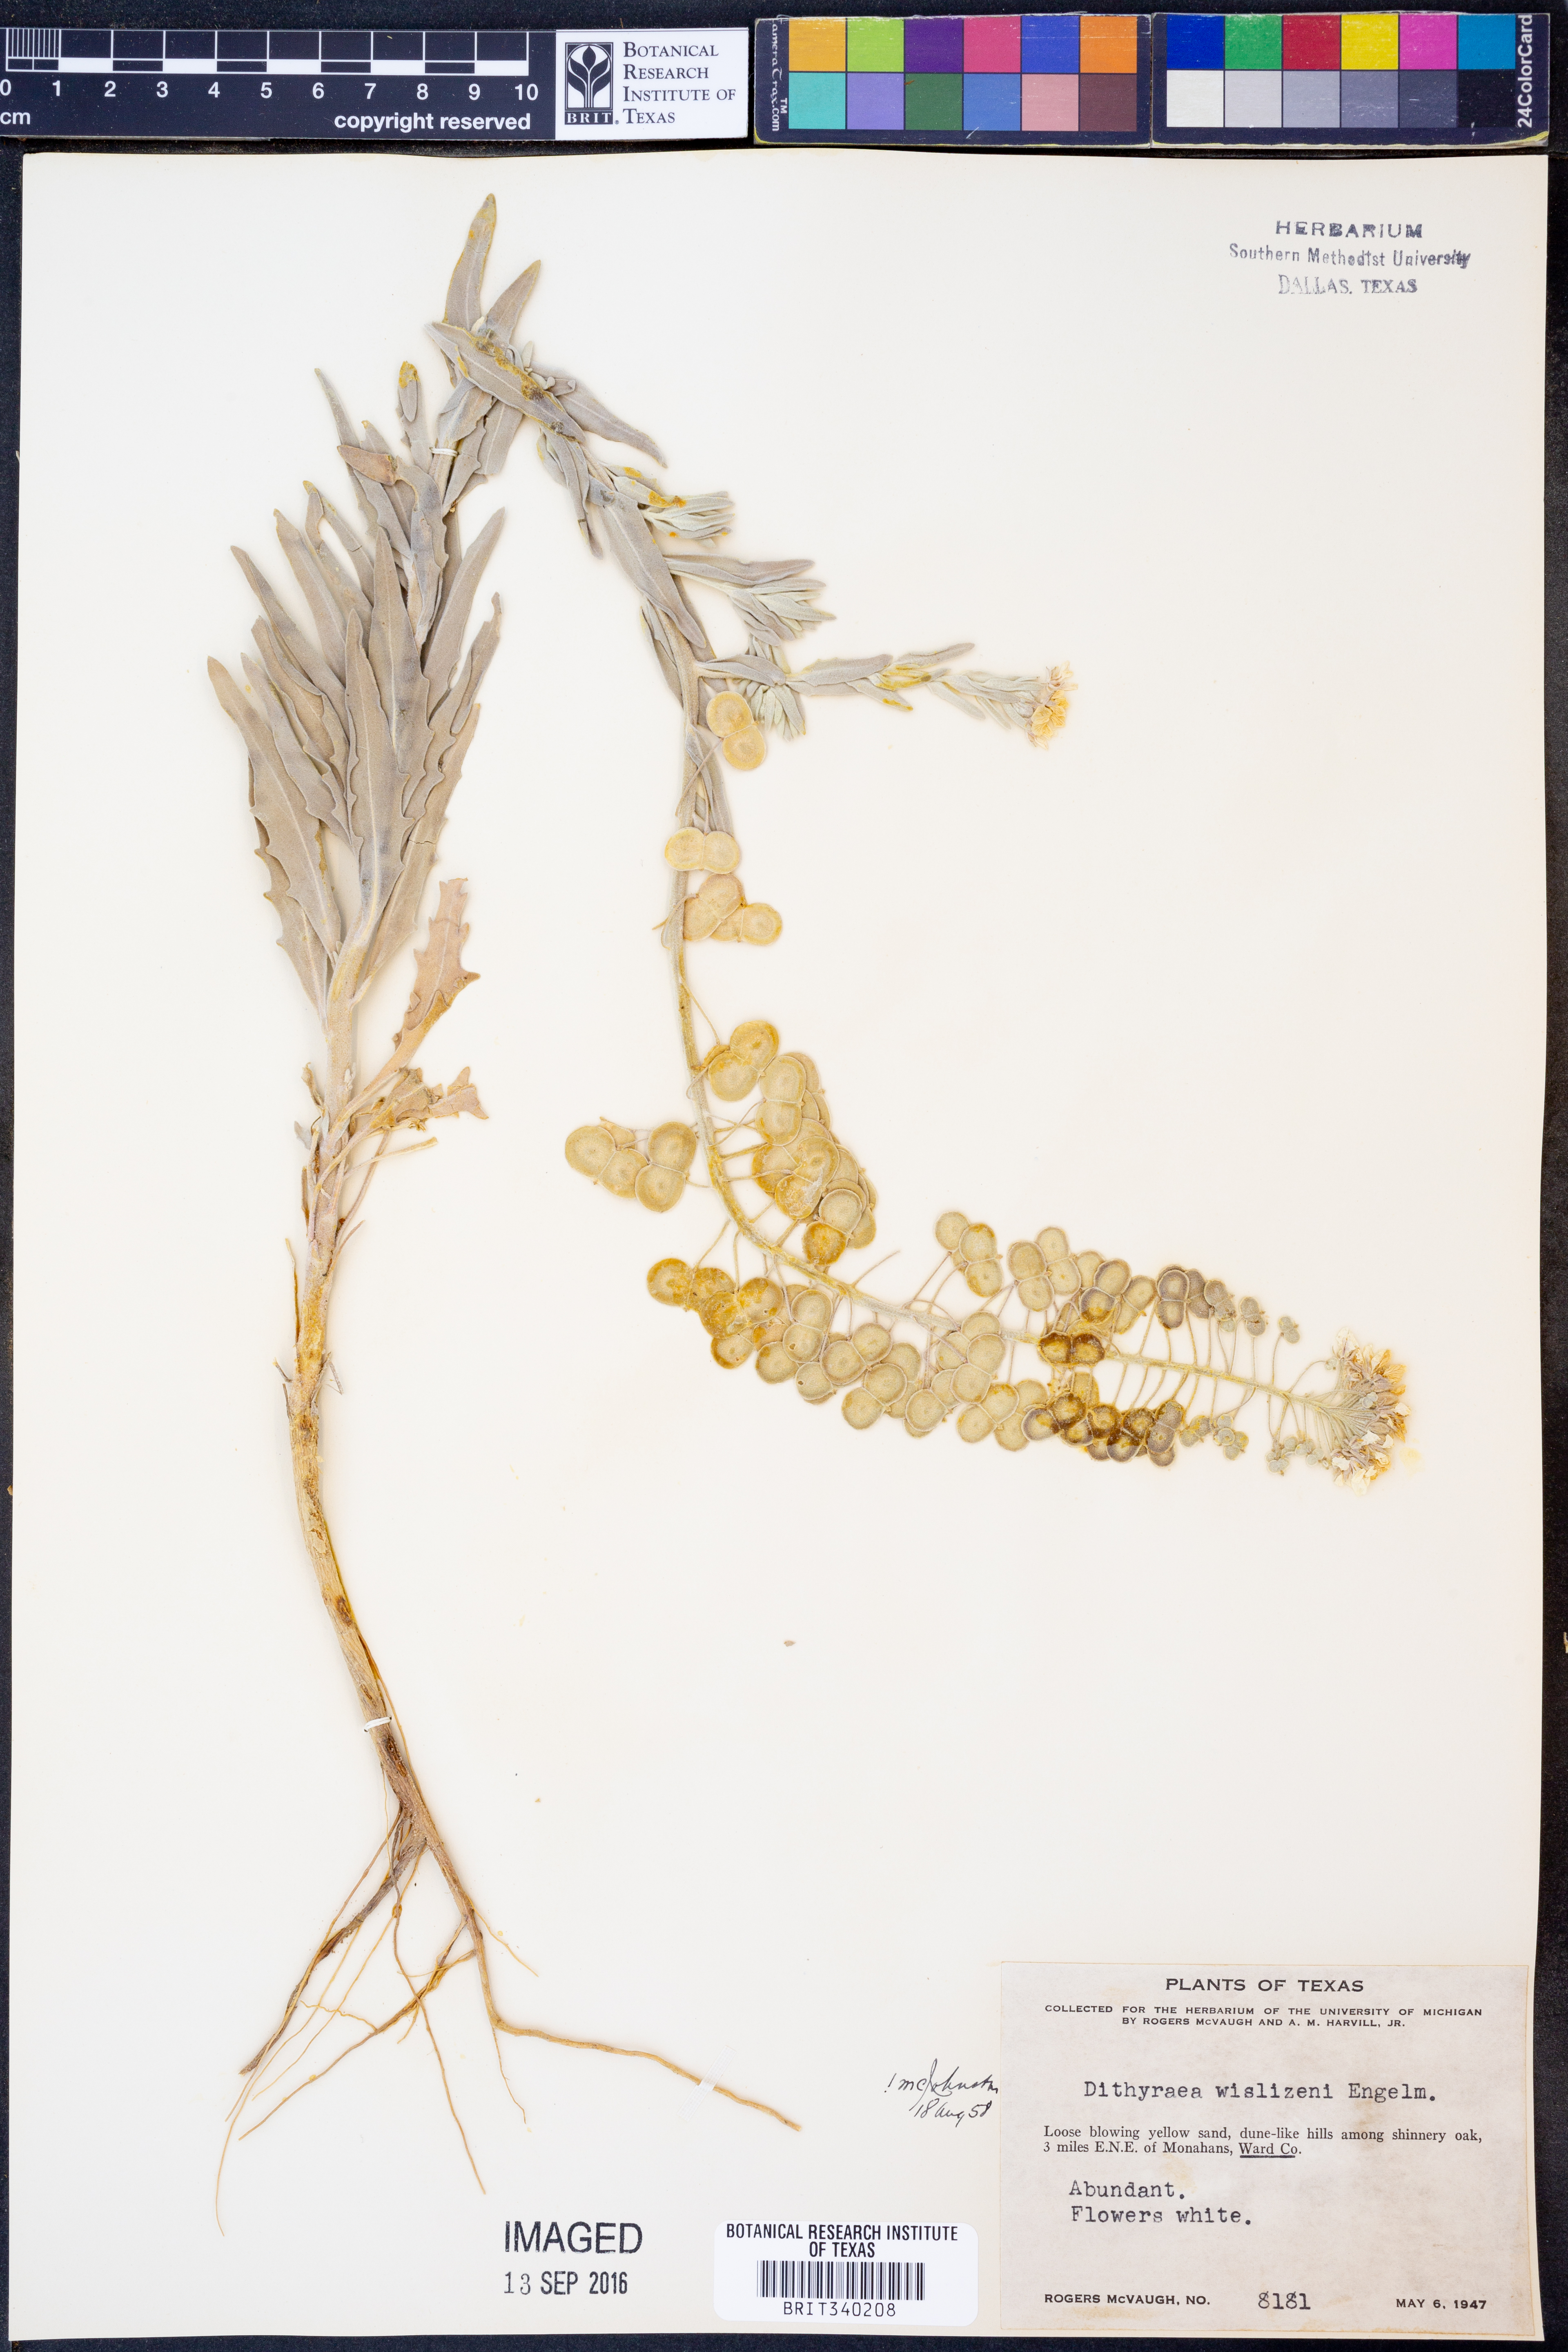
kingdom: Plantae
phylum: Tracheophyta
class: Magnoliopsida
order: Brassicales
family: Brassicaceae
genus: Dimorphocarpa
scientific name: Dimorphocarpa wislizenii
